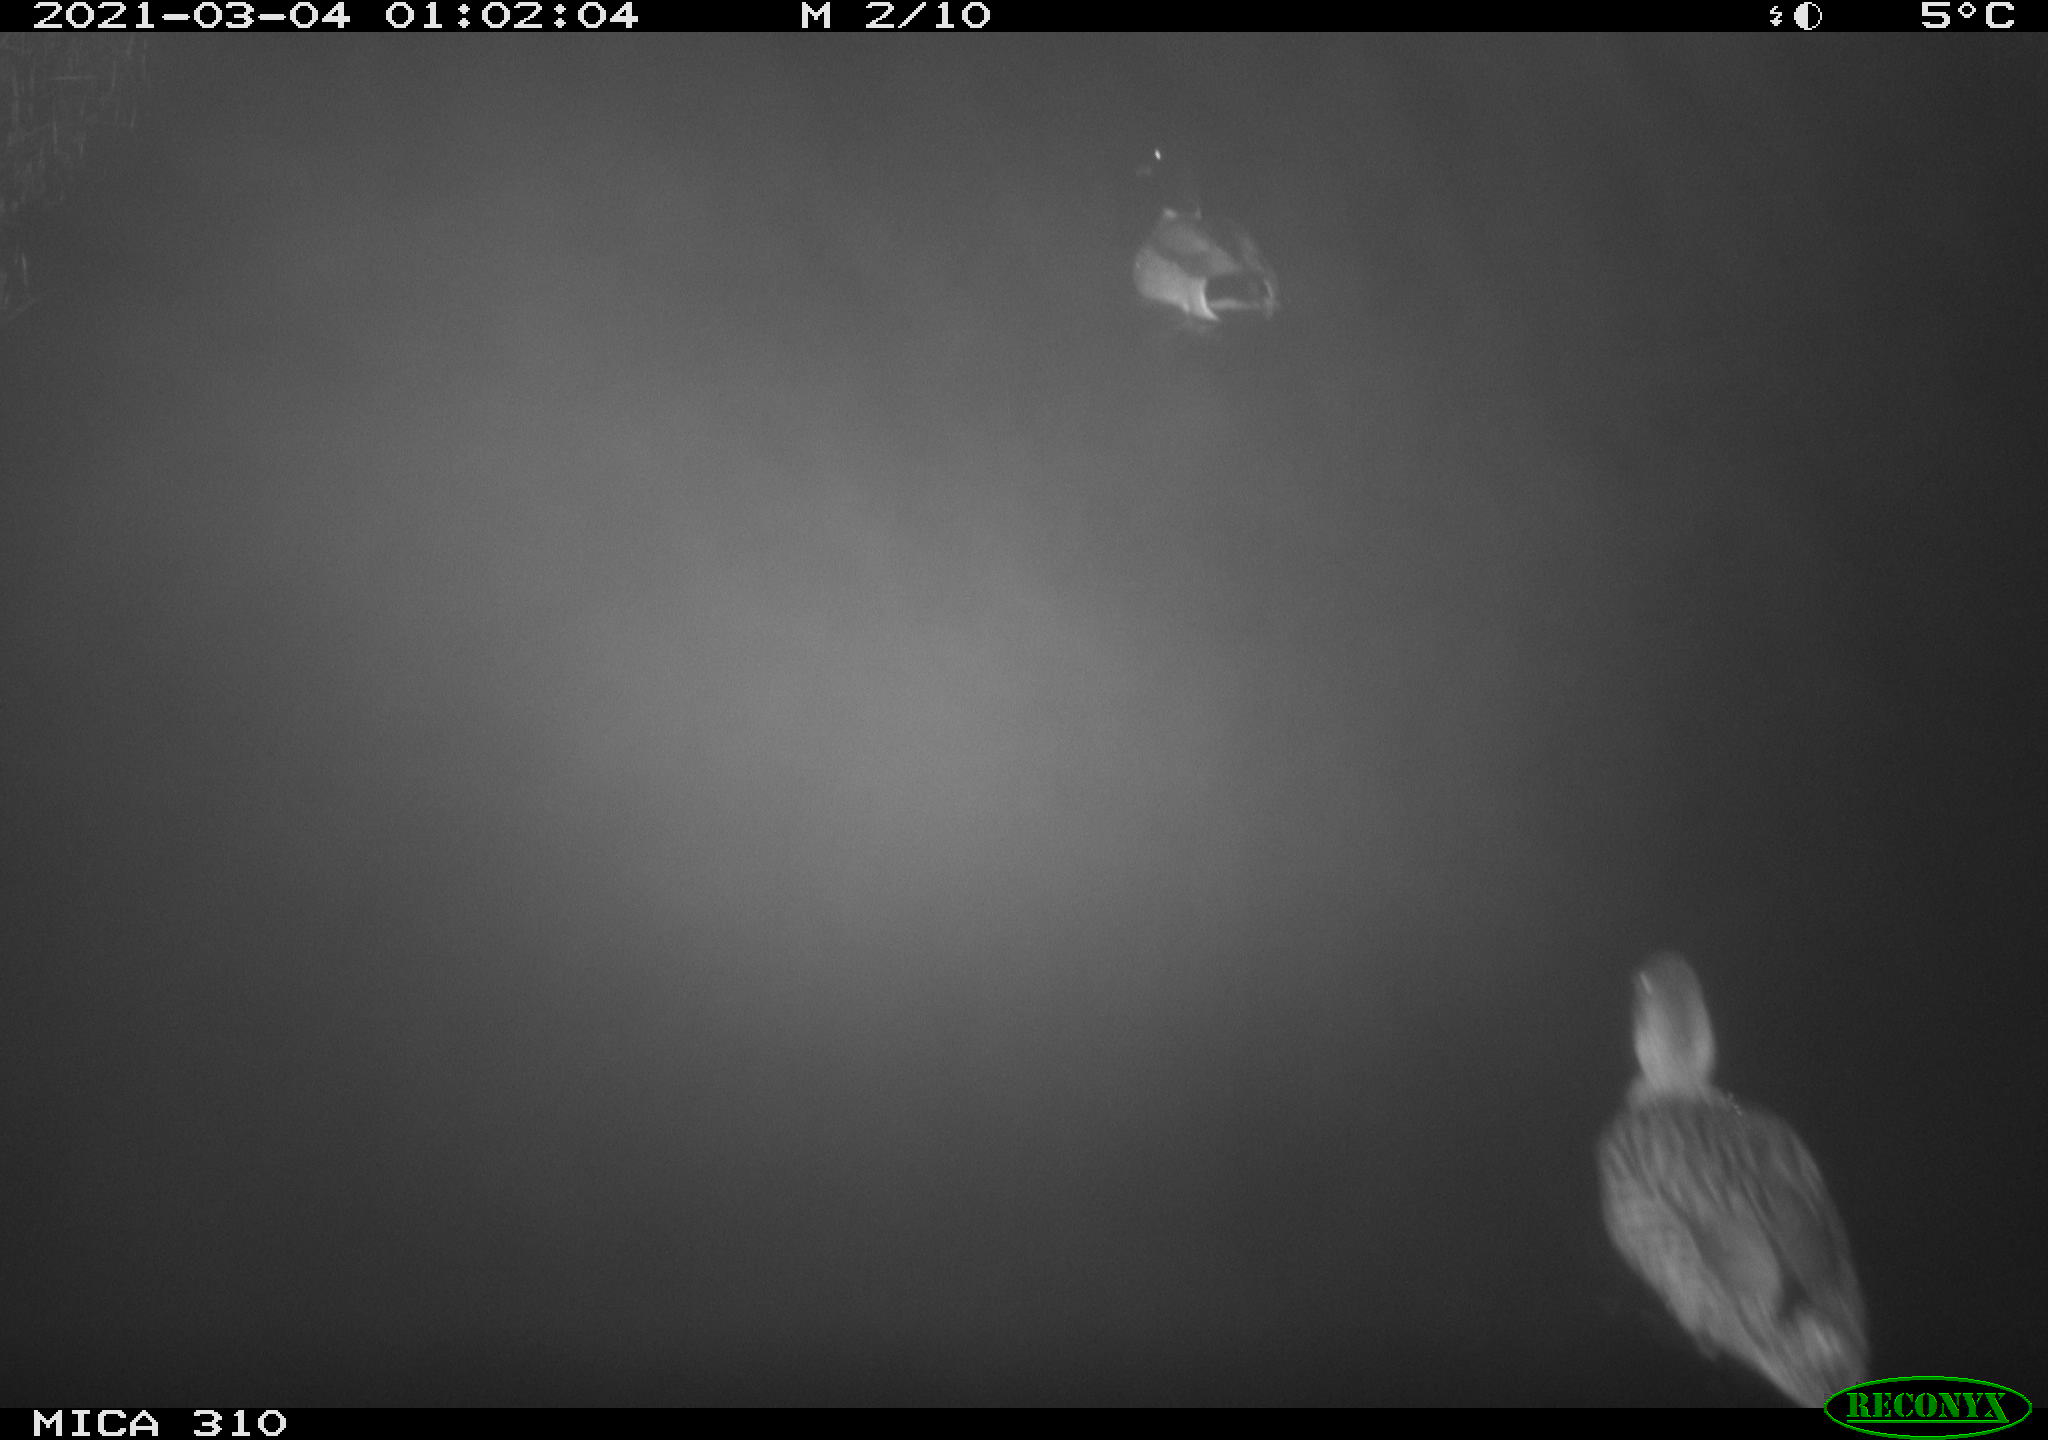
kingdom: Animalia
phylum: Chordata
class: Aves
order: Anseriformes
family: Anatidae
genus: Anas
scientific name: Anas platyrhynchos
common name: Mallard
